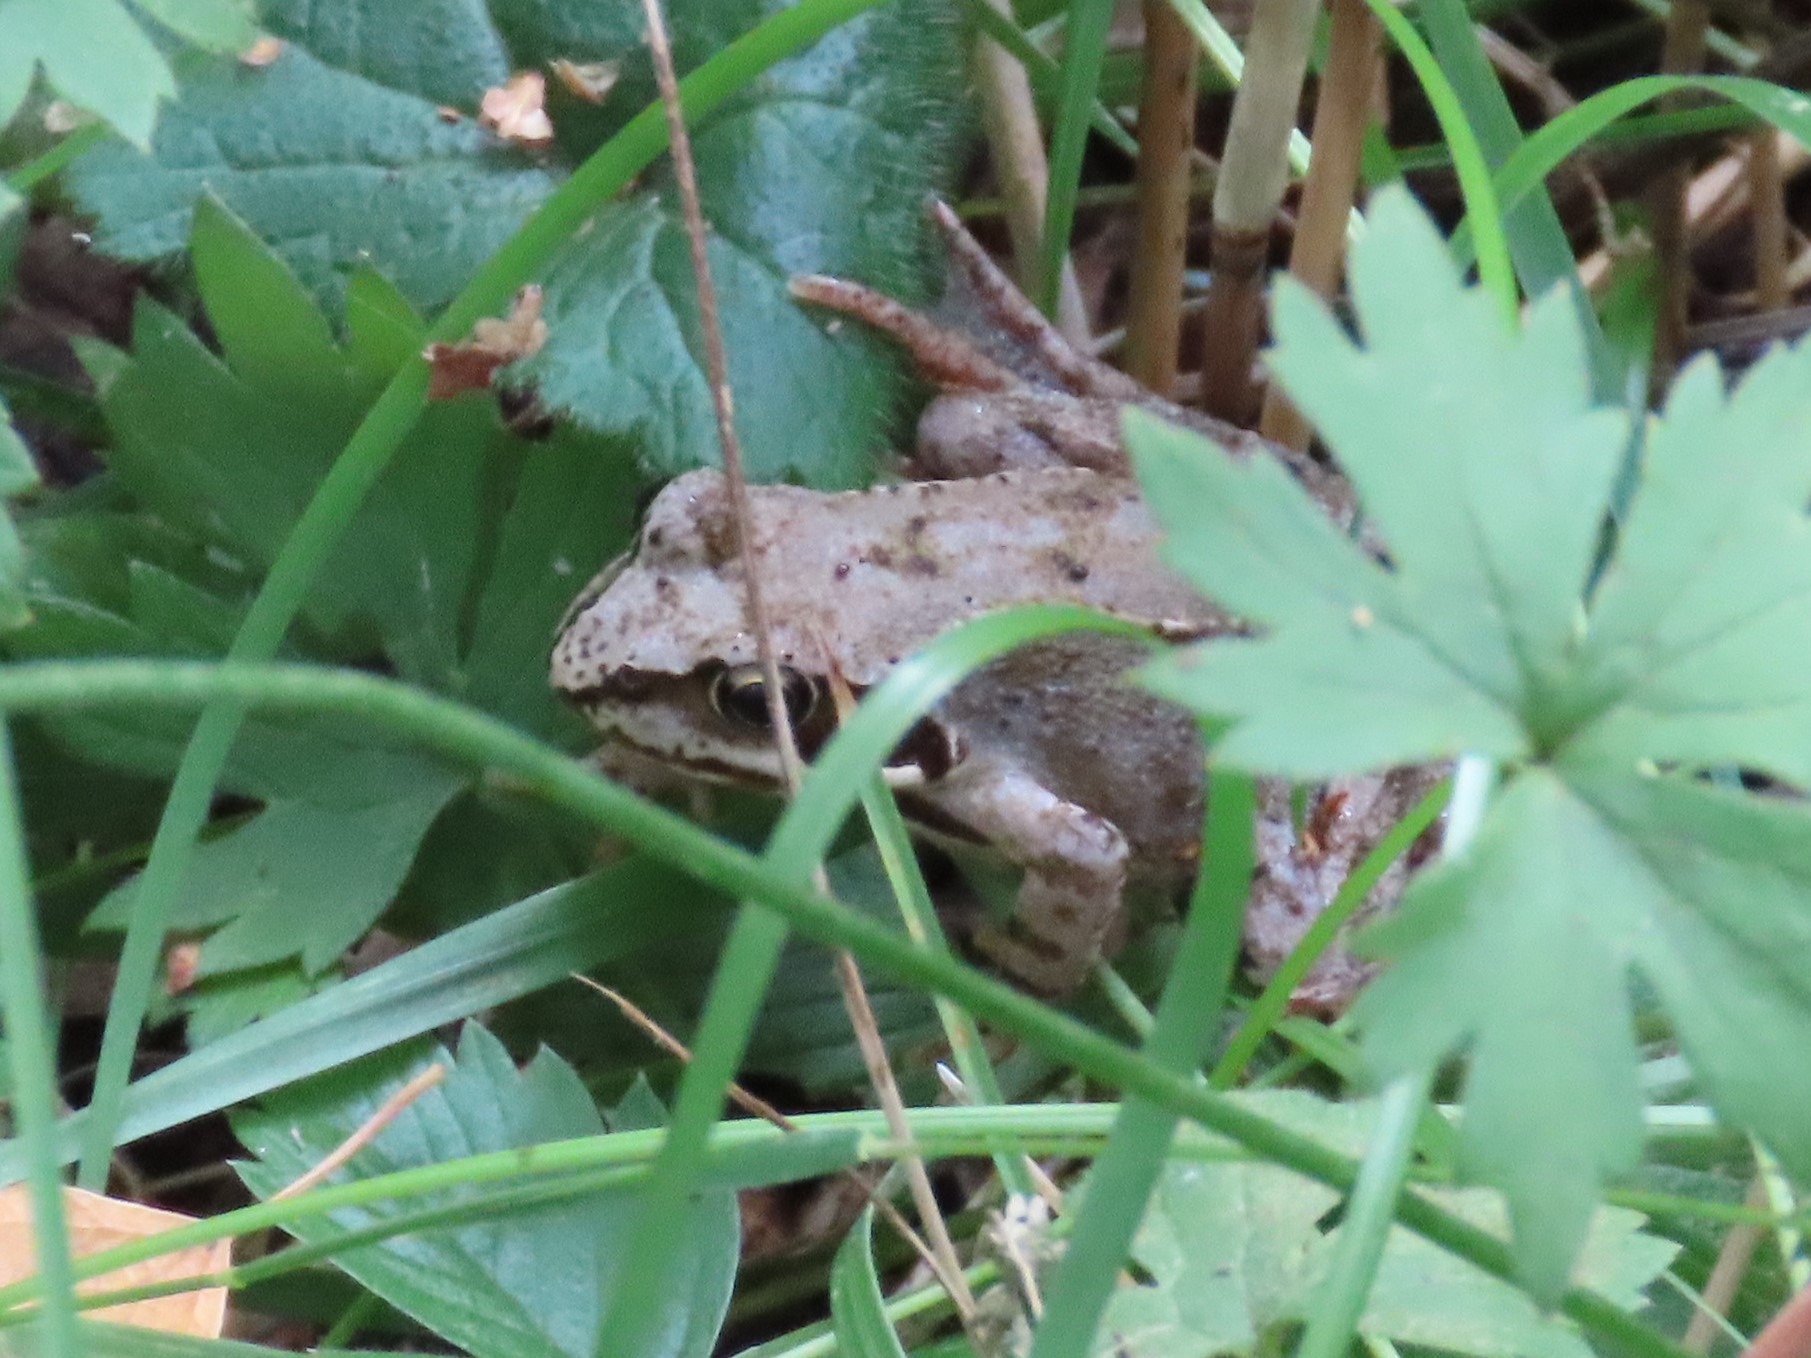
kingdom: Animalia
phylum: Chordata
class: Amphibia
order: Anura
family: Ranidae
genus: Rana
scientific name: Rana temporaria
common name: Butsnudet frø
